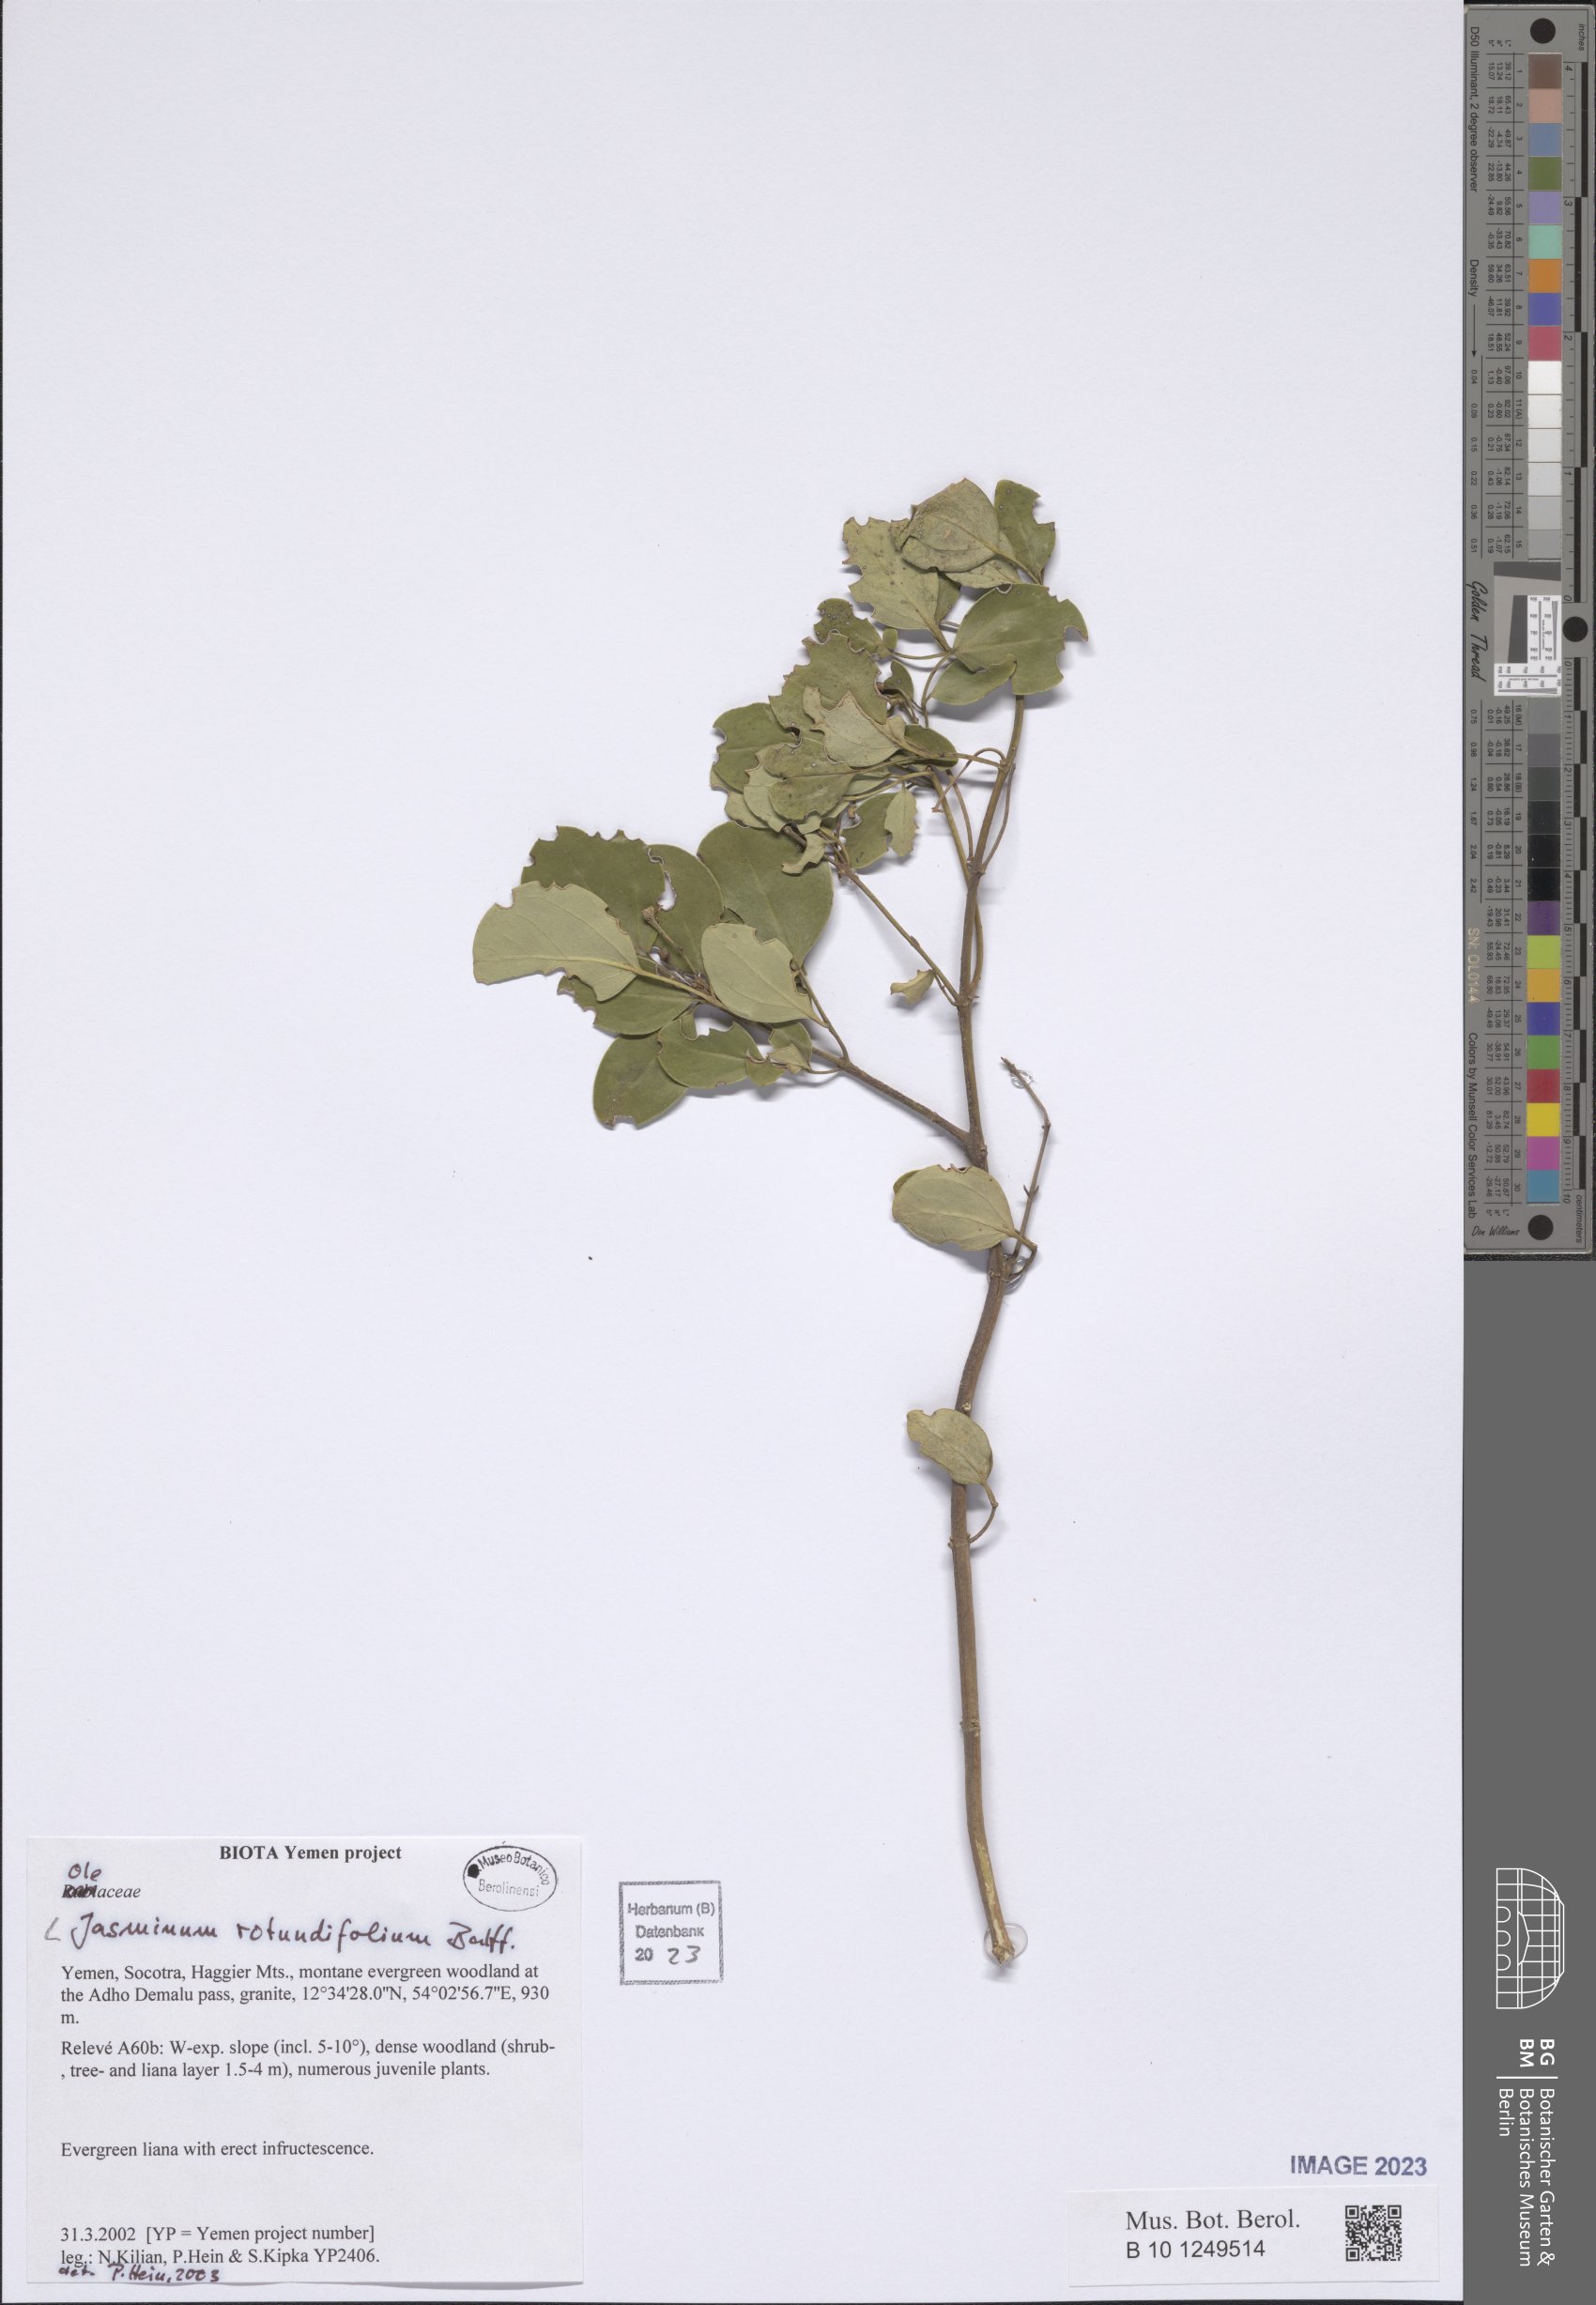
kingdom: Plantae
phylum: Tracheophyta
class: Magnoliopsida
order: Lamiales
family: Oleaceae
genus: Jasminum
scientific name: Jasminum fluminense
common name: Brazilian jasmine
